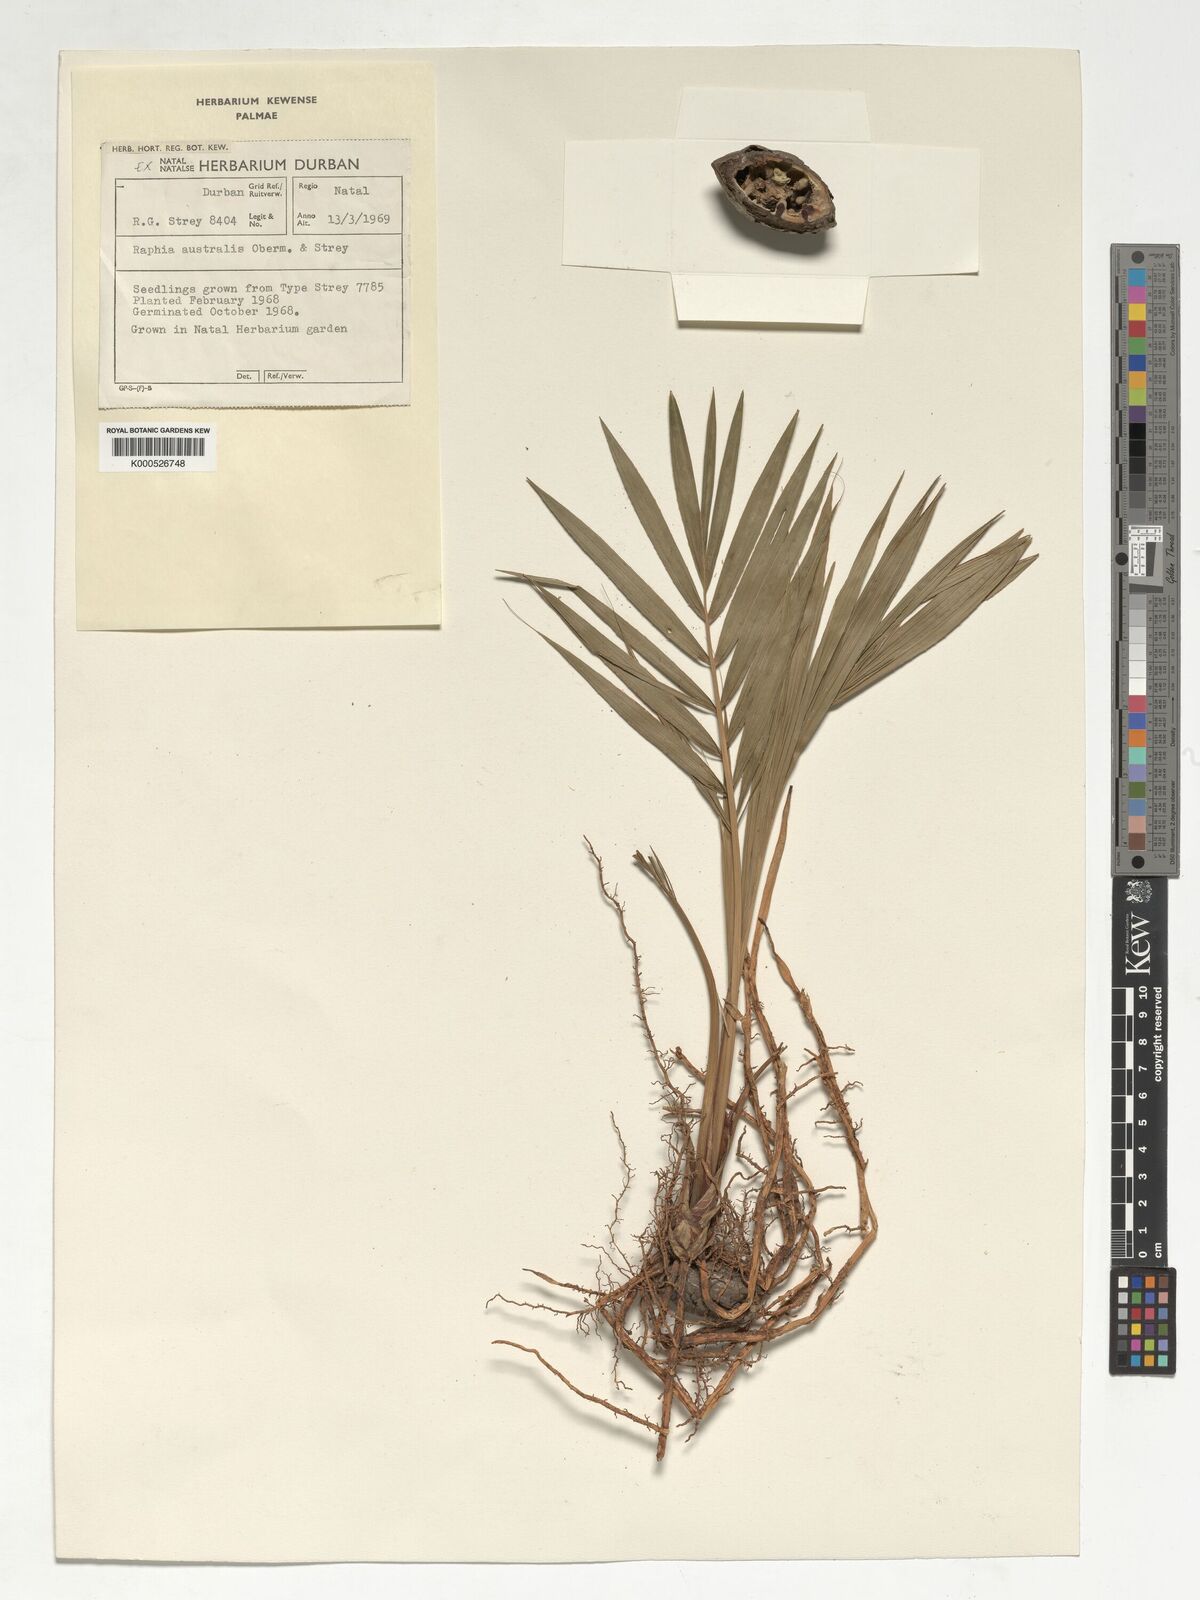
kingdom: Plantae
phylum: Tracheophyta
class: Liliopsida
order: Arecales
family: Arecaceae
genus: Raphia
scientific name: Raphia australis
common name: Giant palm
